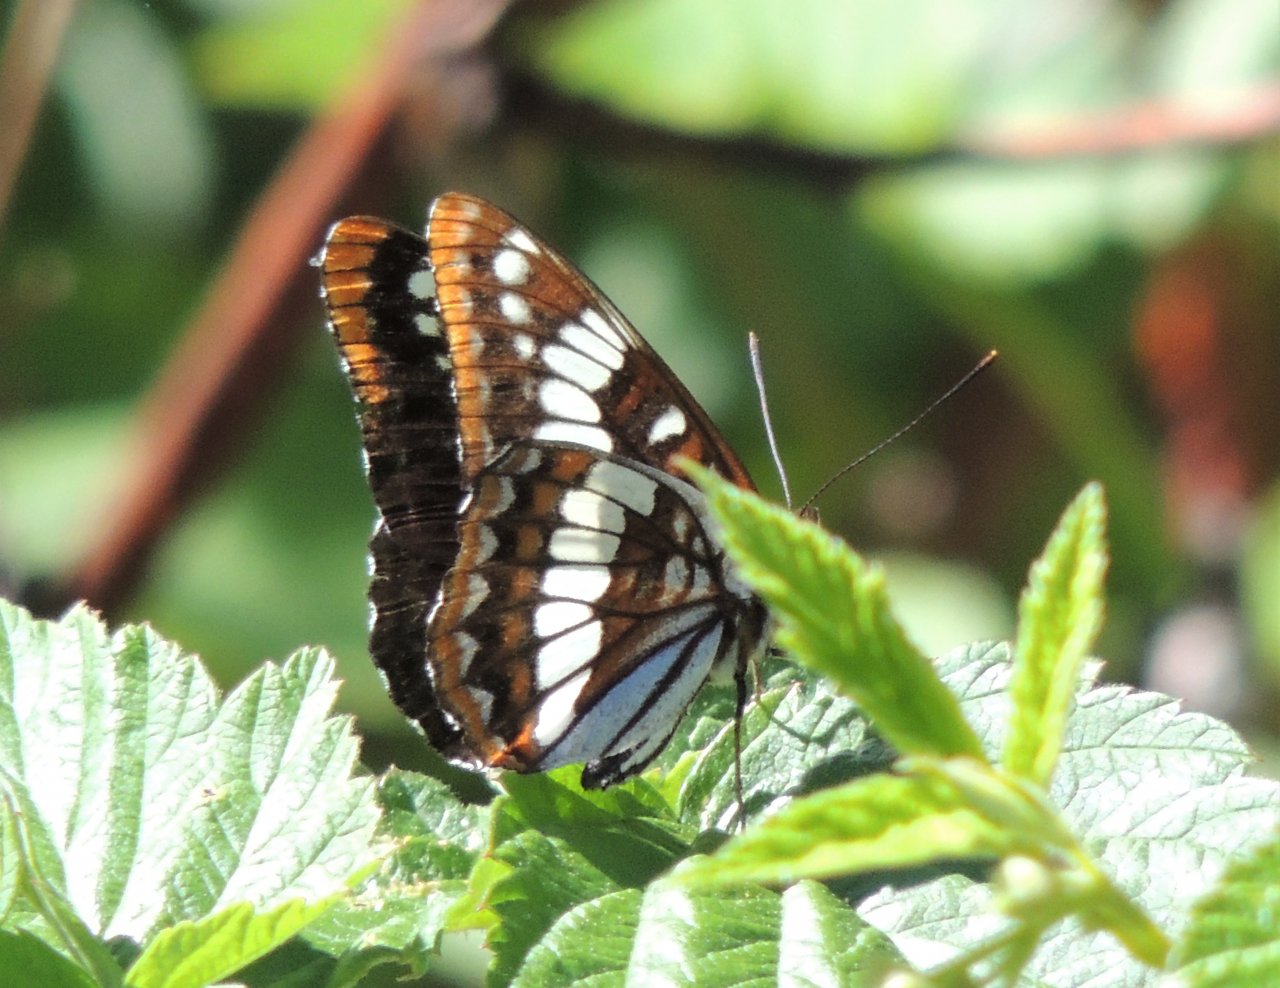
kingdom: Animalia
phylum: Arthropoda
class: Insecta
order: Lepidoptera
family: Nymphalidae
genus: Limenitis
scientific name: Limenitis lorquini
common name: Lorquin's Admiral
